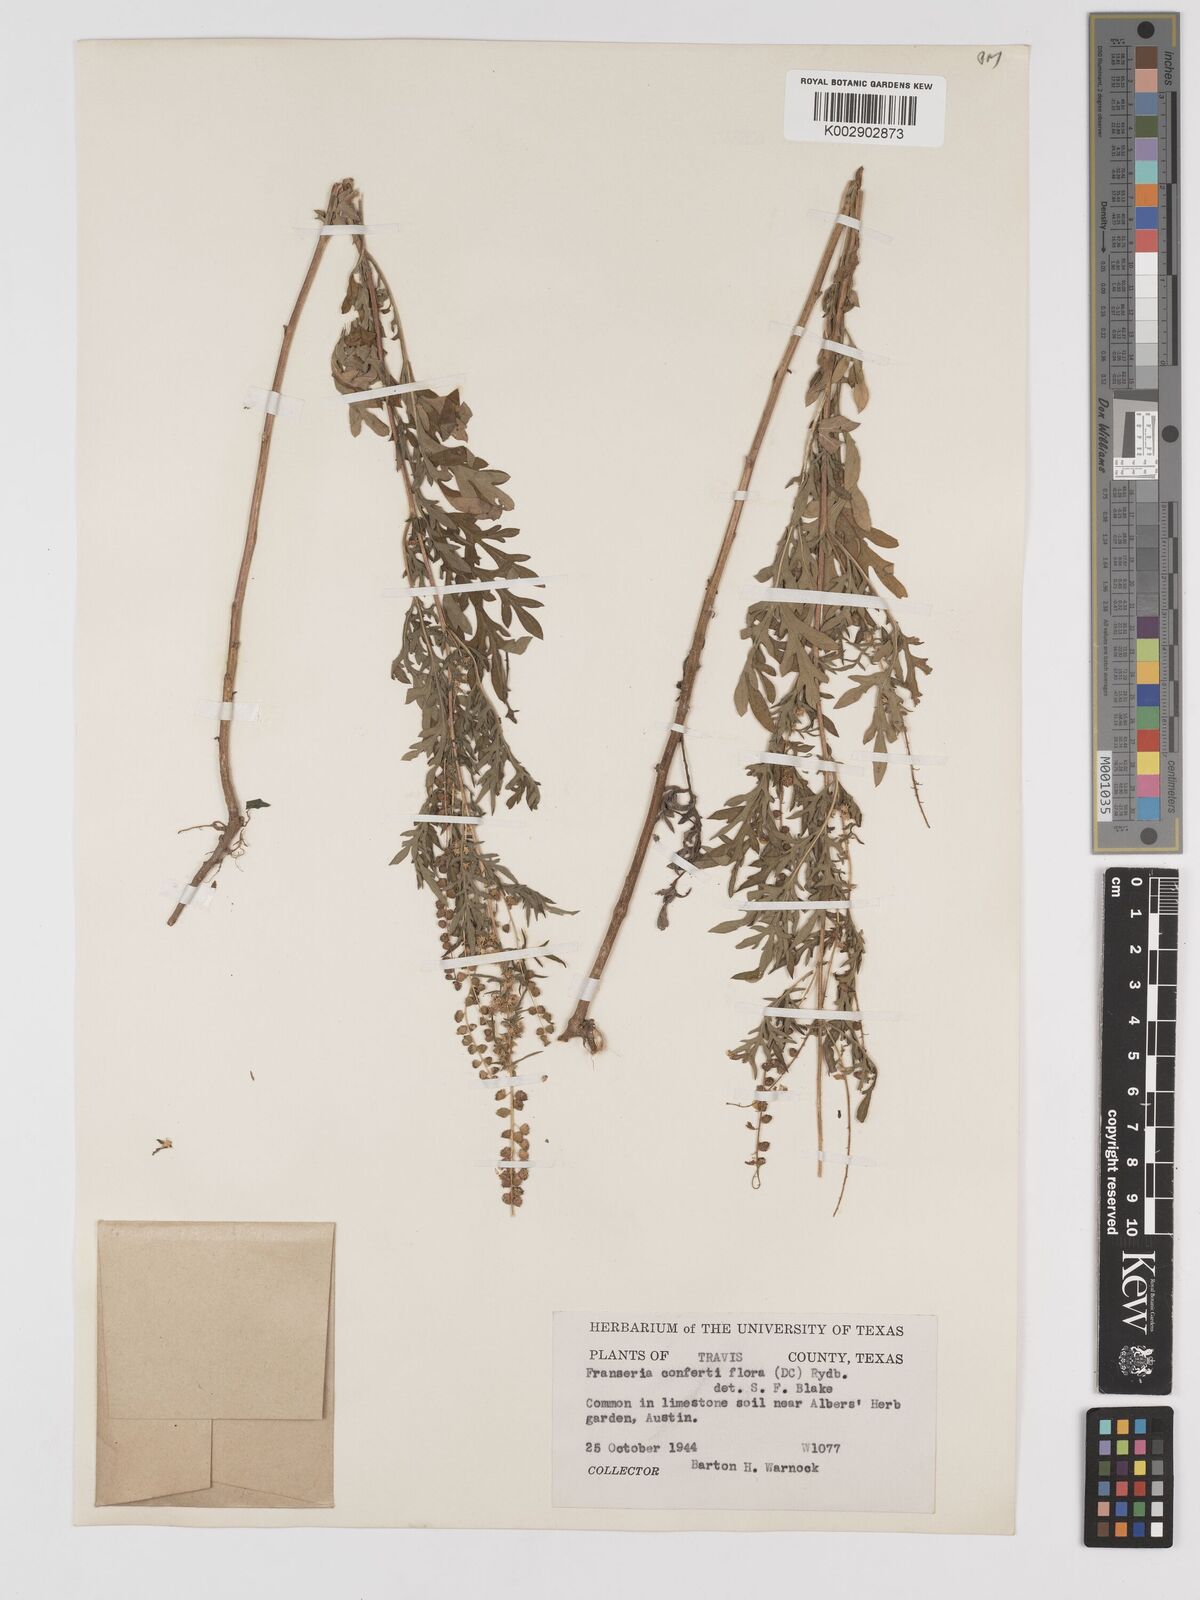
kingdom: Plantae
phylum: Tracheophyta
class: Magnoliopsida
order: Asterales
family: Asteraceae
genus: Ambrosia
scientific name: Ambrosia confertiflora
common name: Bur ragweed
